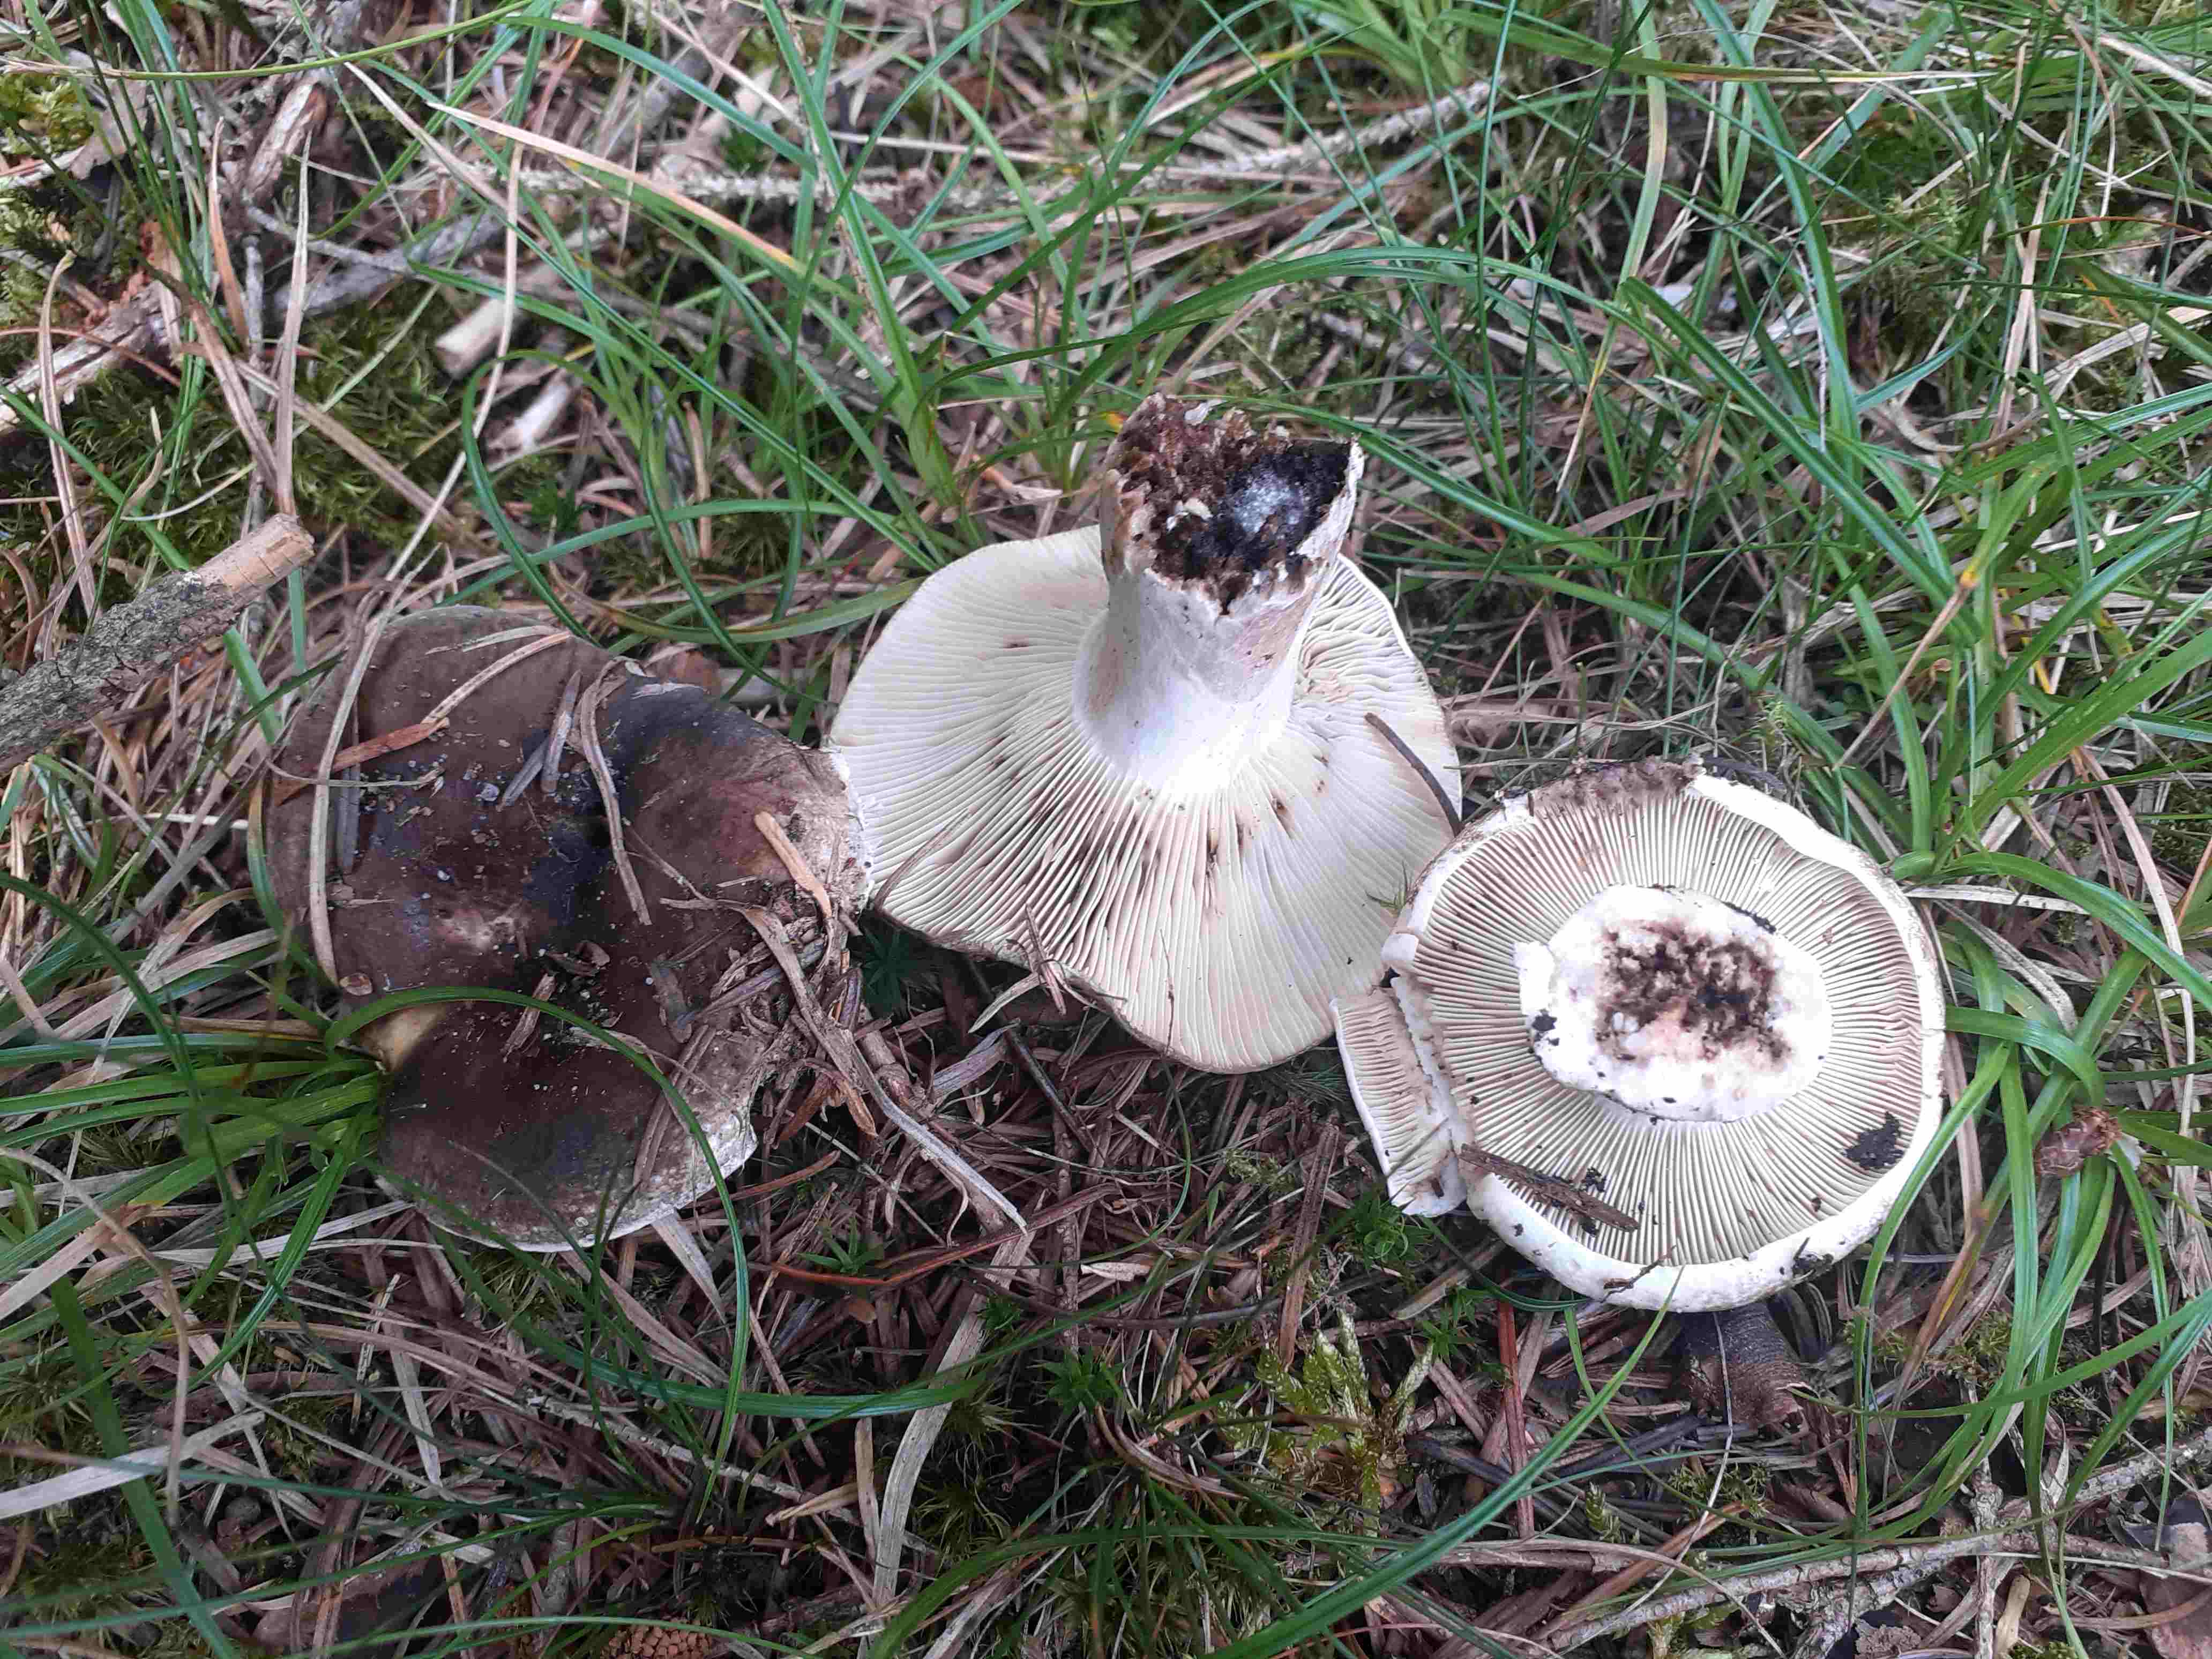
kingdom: Fungi
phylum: Basidiomycota
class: Agaricomycetes
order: Russulales
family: Russulaceae
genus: Russula
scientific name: Russula adusta
